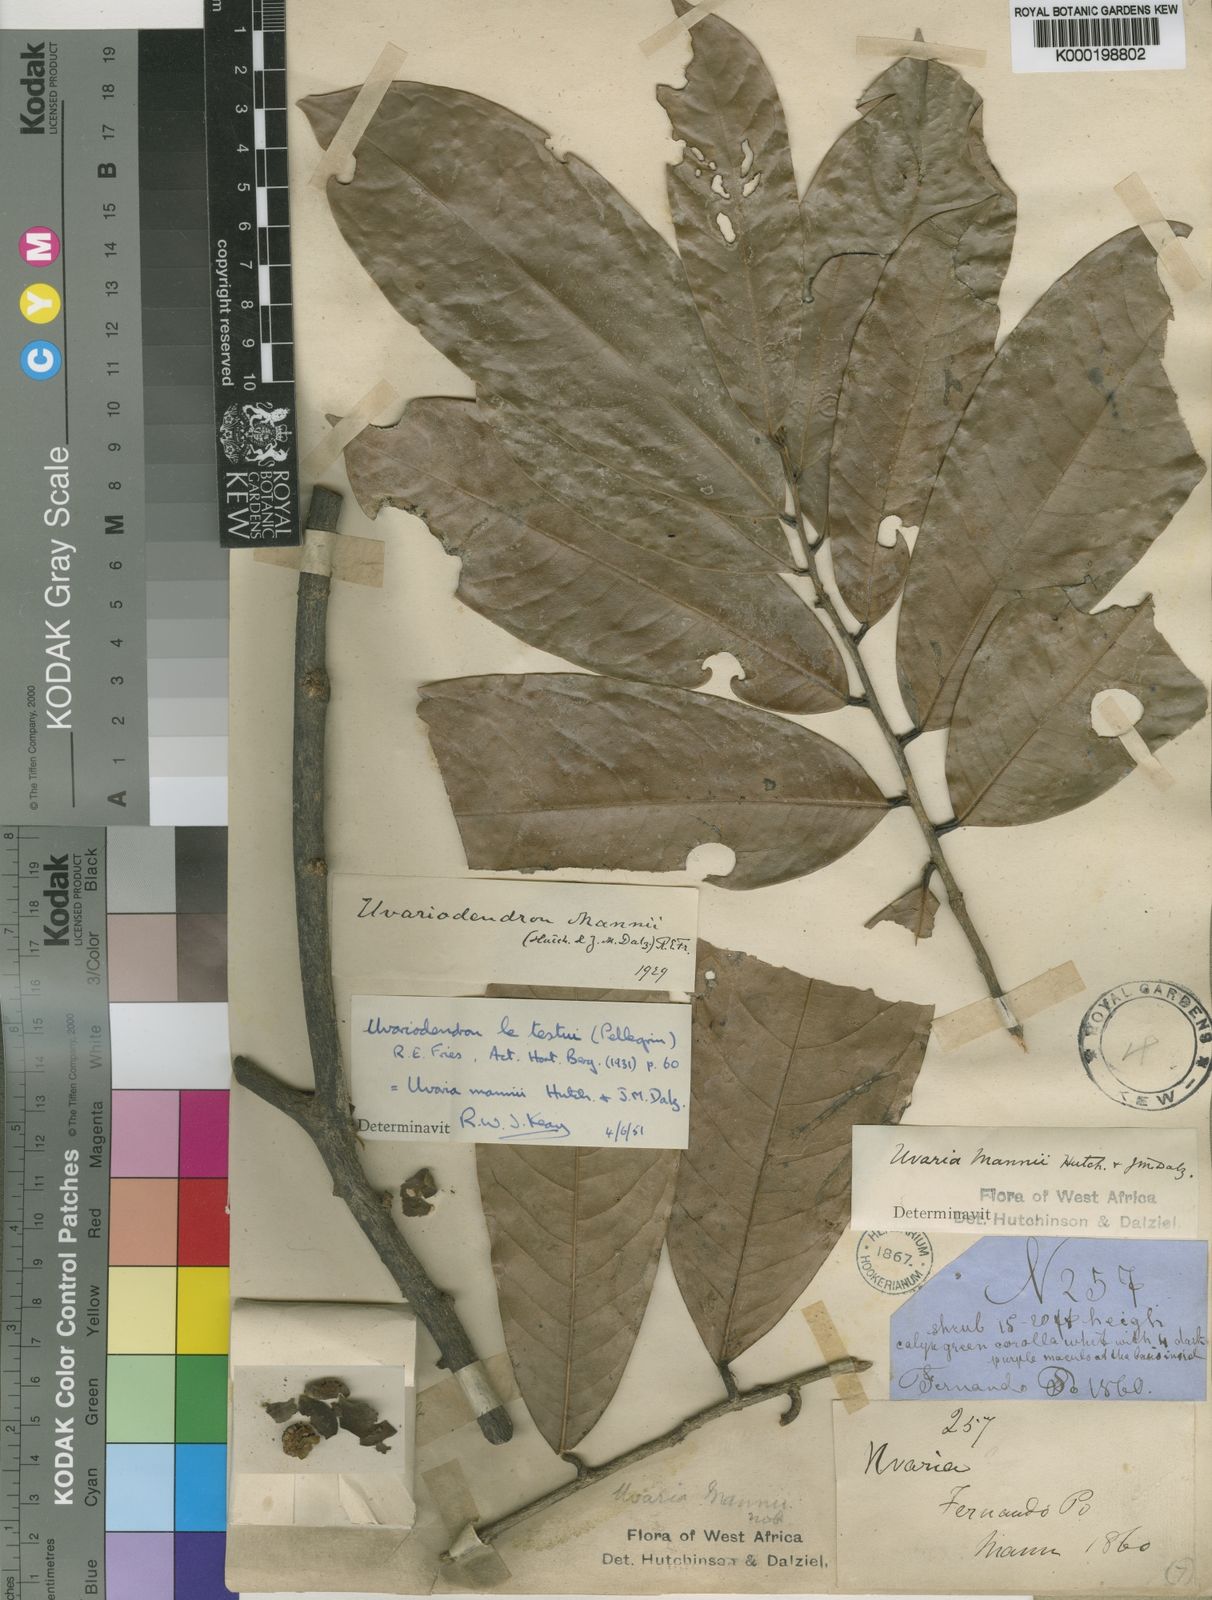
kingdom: Plantae
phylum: Tracheophyta
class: Magnoliopsida
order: Magnoliales
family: Annonaceae
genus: Uvariodendron
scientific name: Uvariodendron molundense
